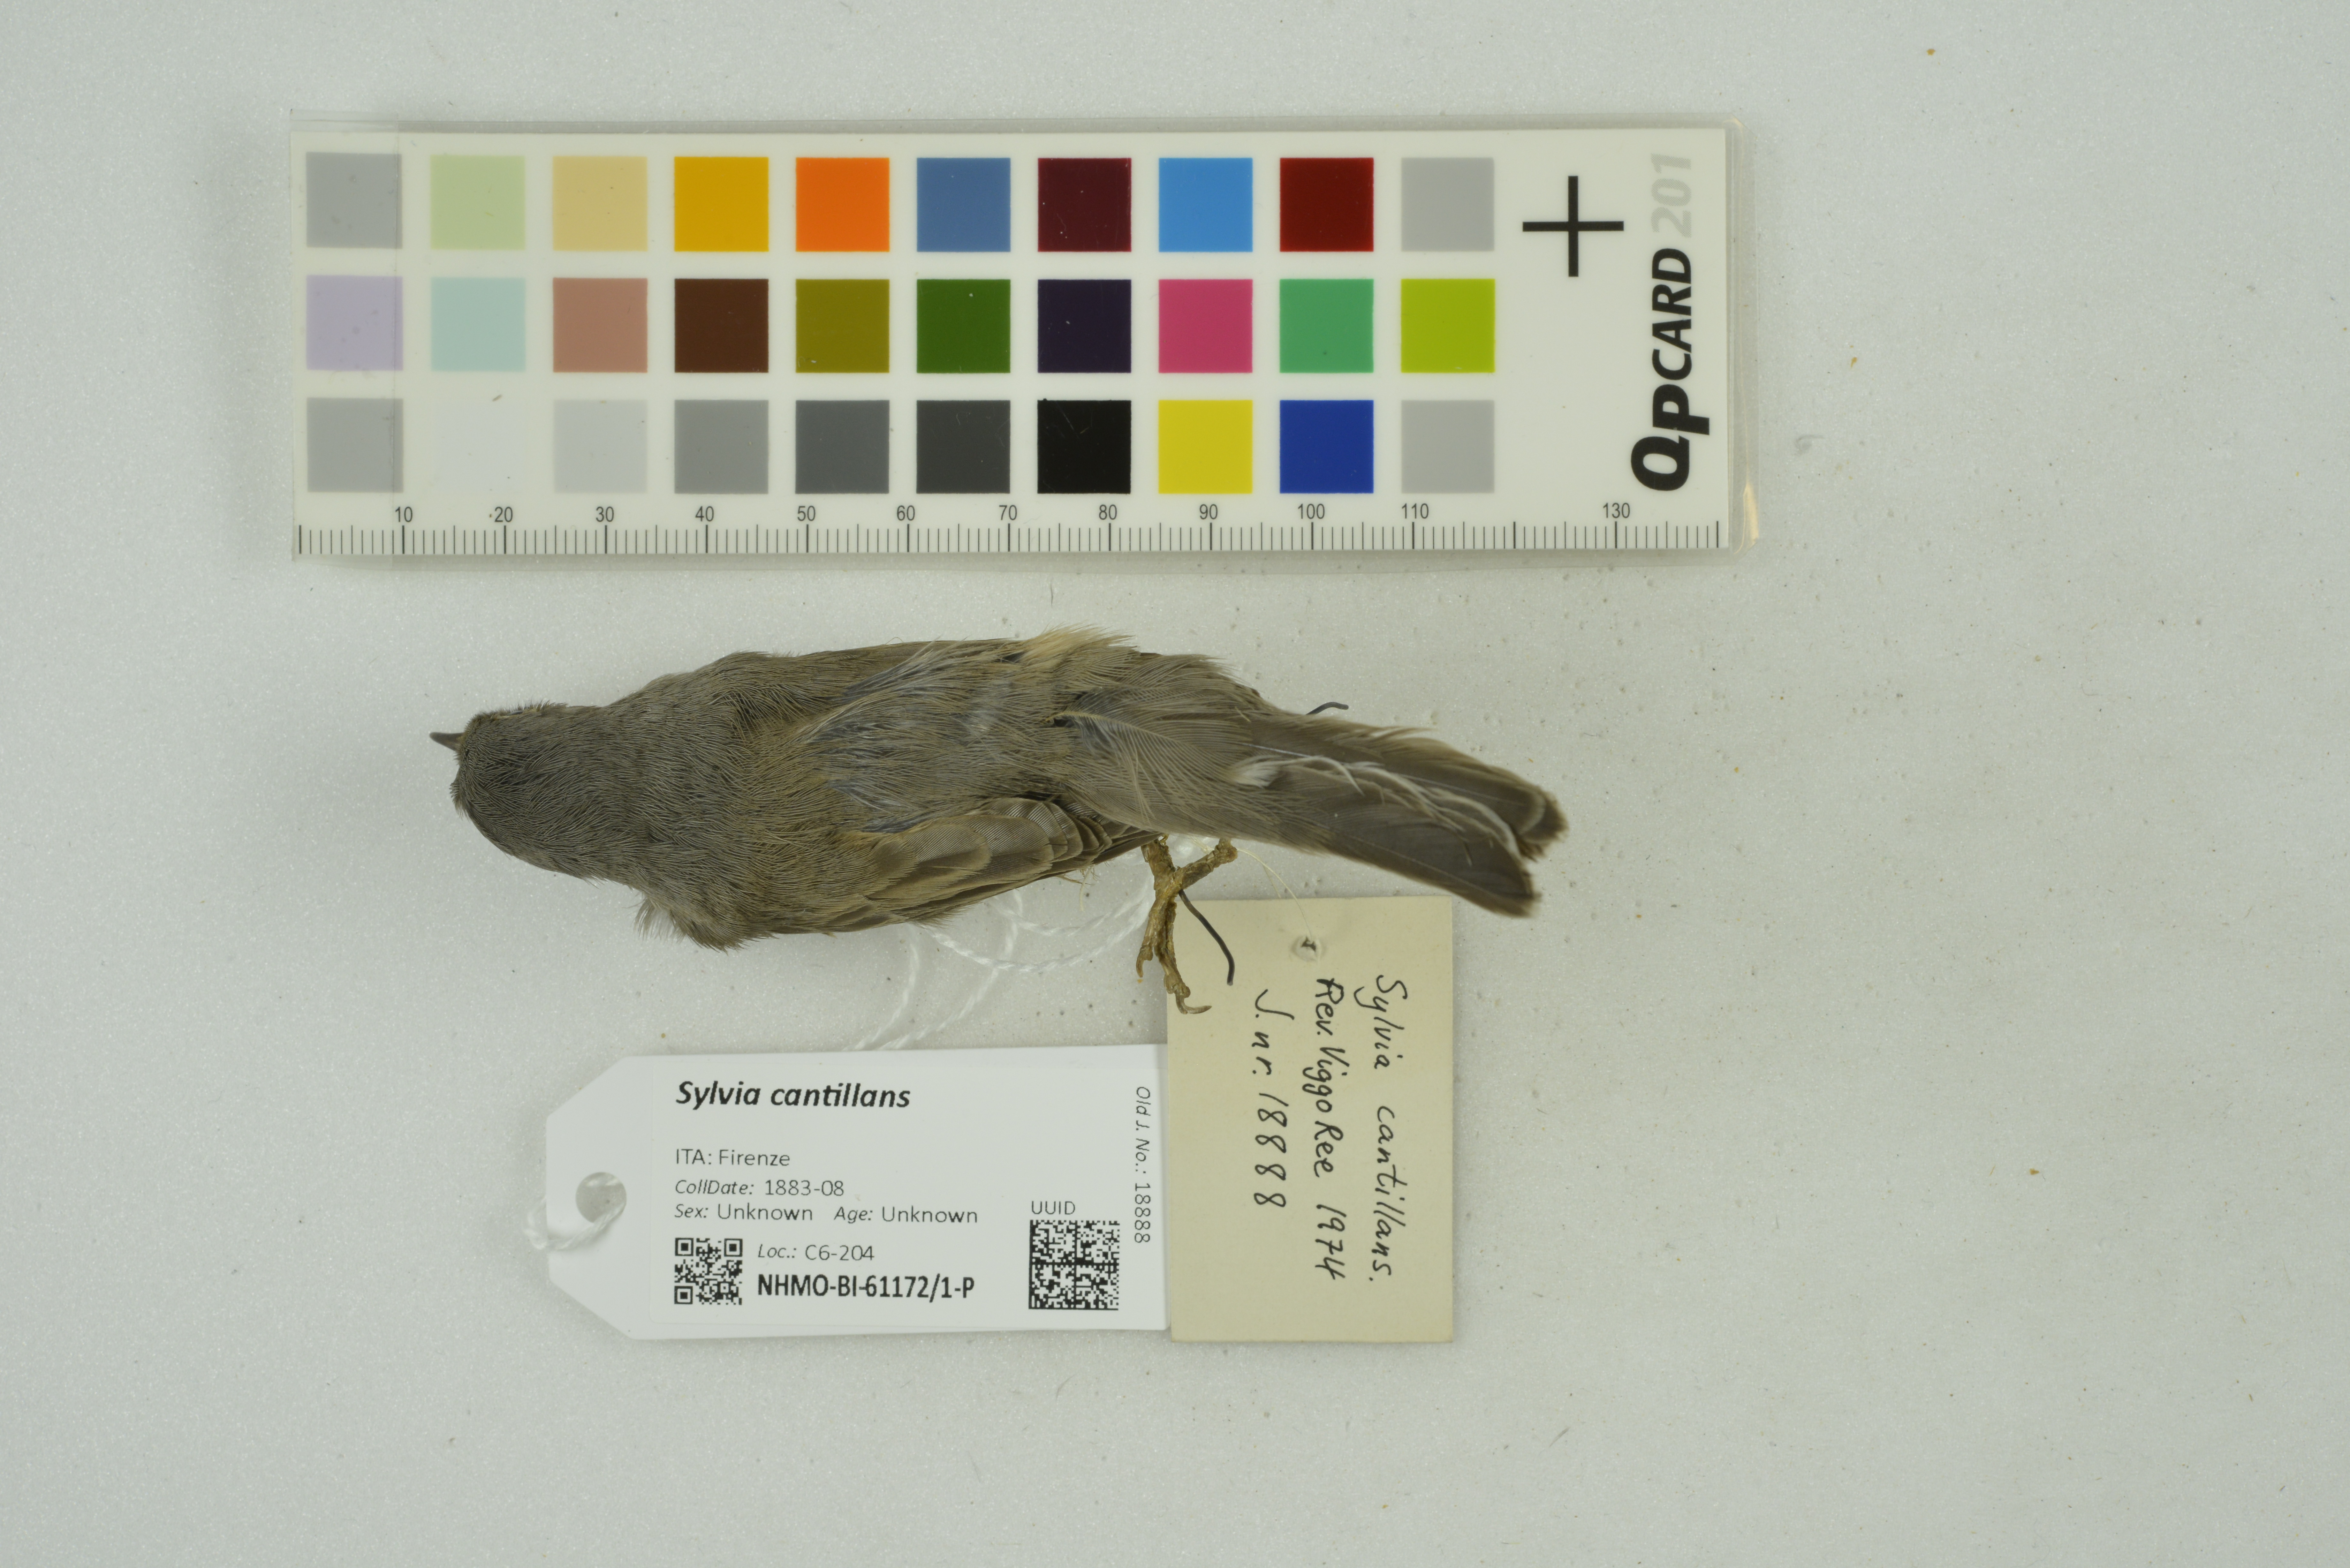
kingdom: Animalia
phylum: Chordata
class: Aves
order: Passeriformes
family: Sylviidae
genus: Curruca
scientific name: Curruca cantillans
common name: Subalpine warbler
